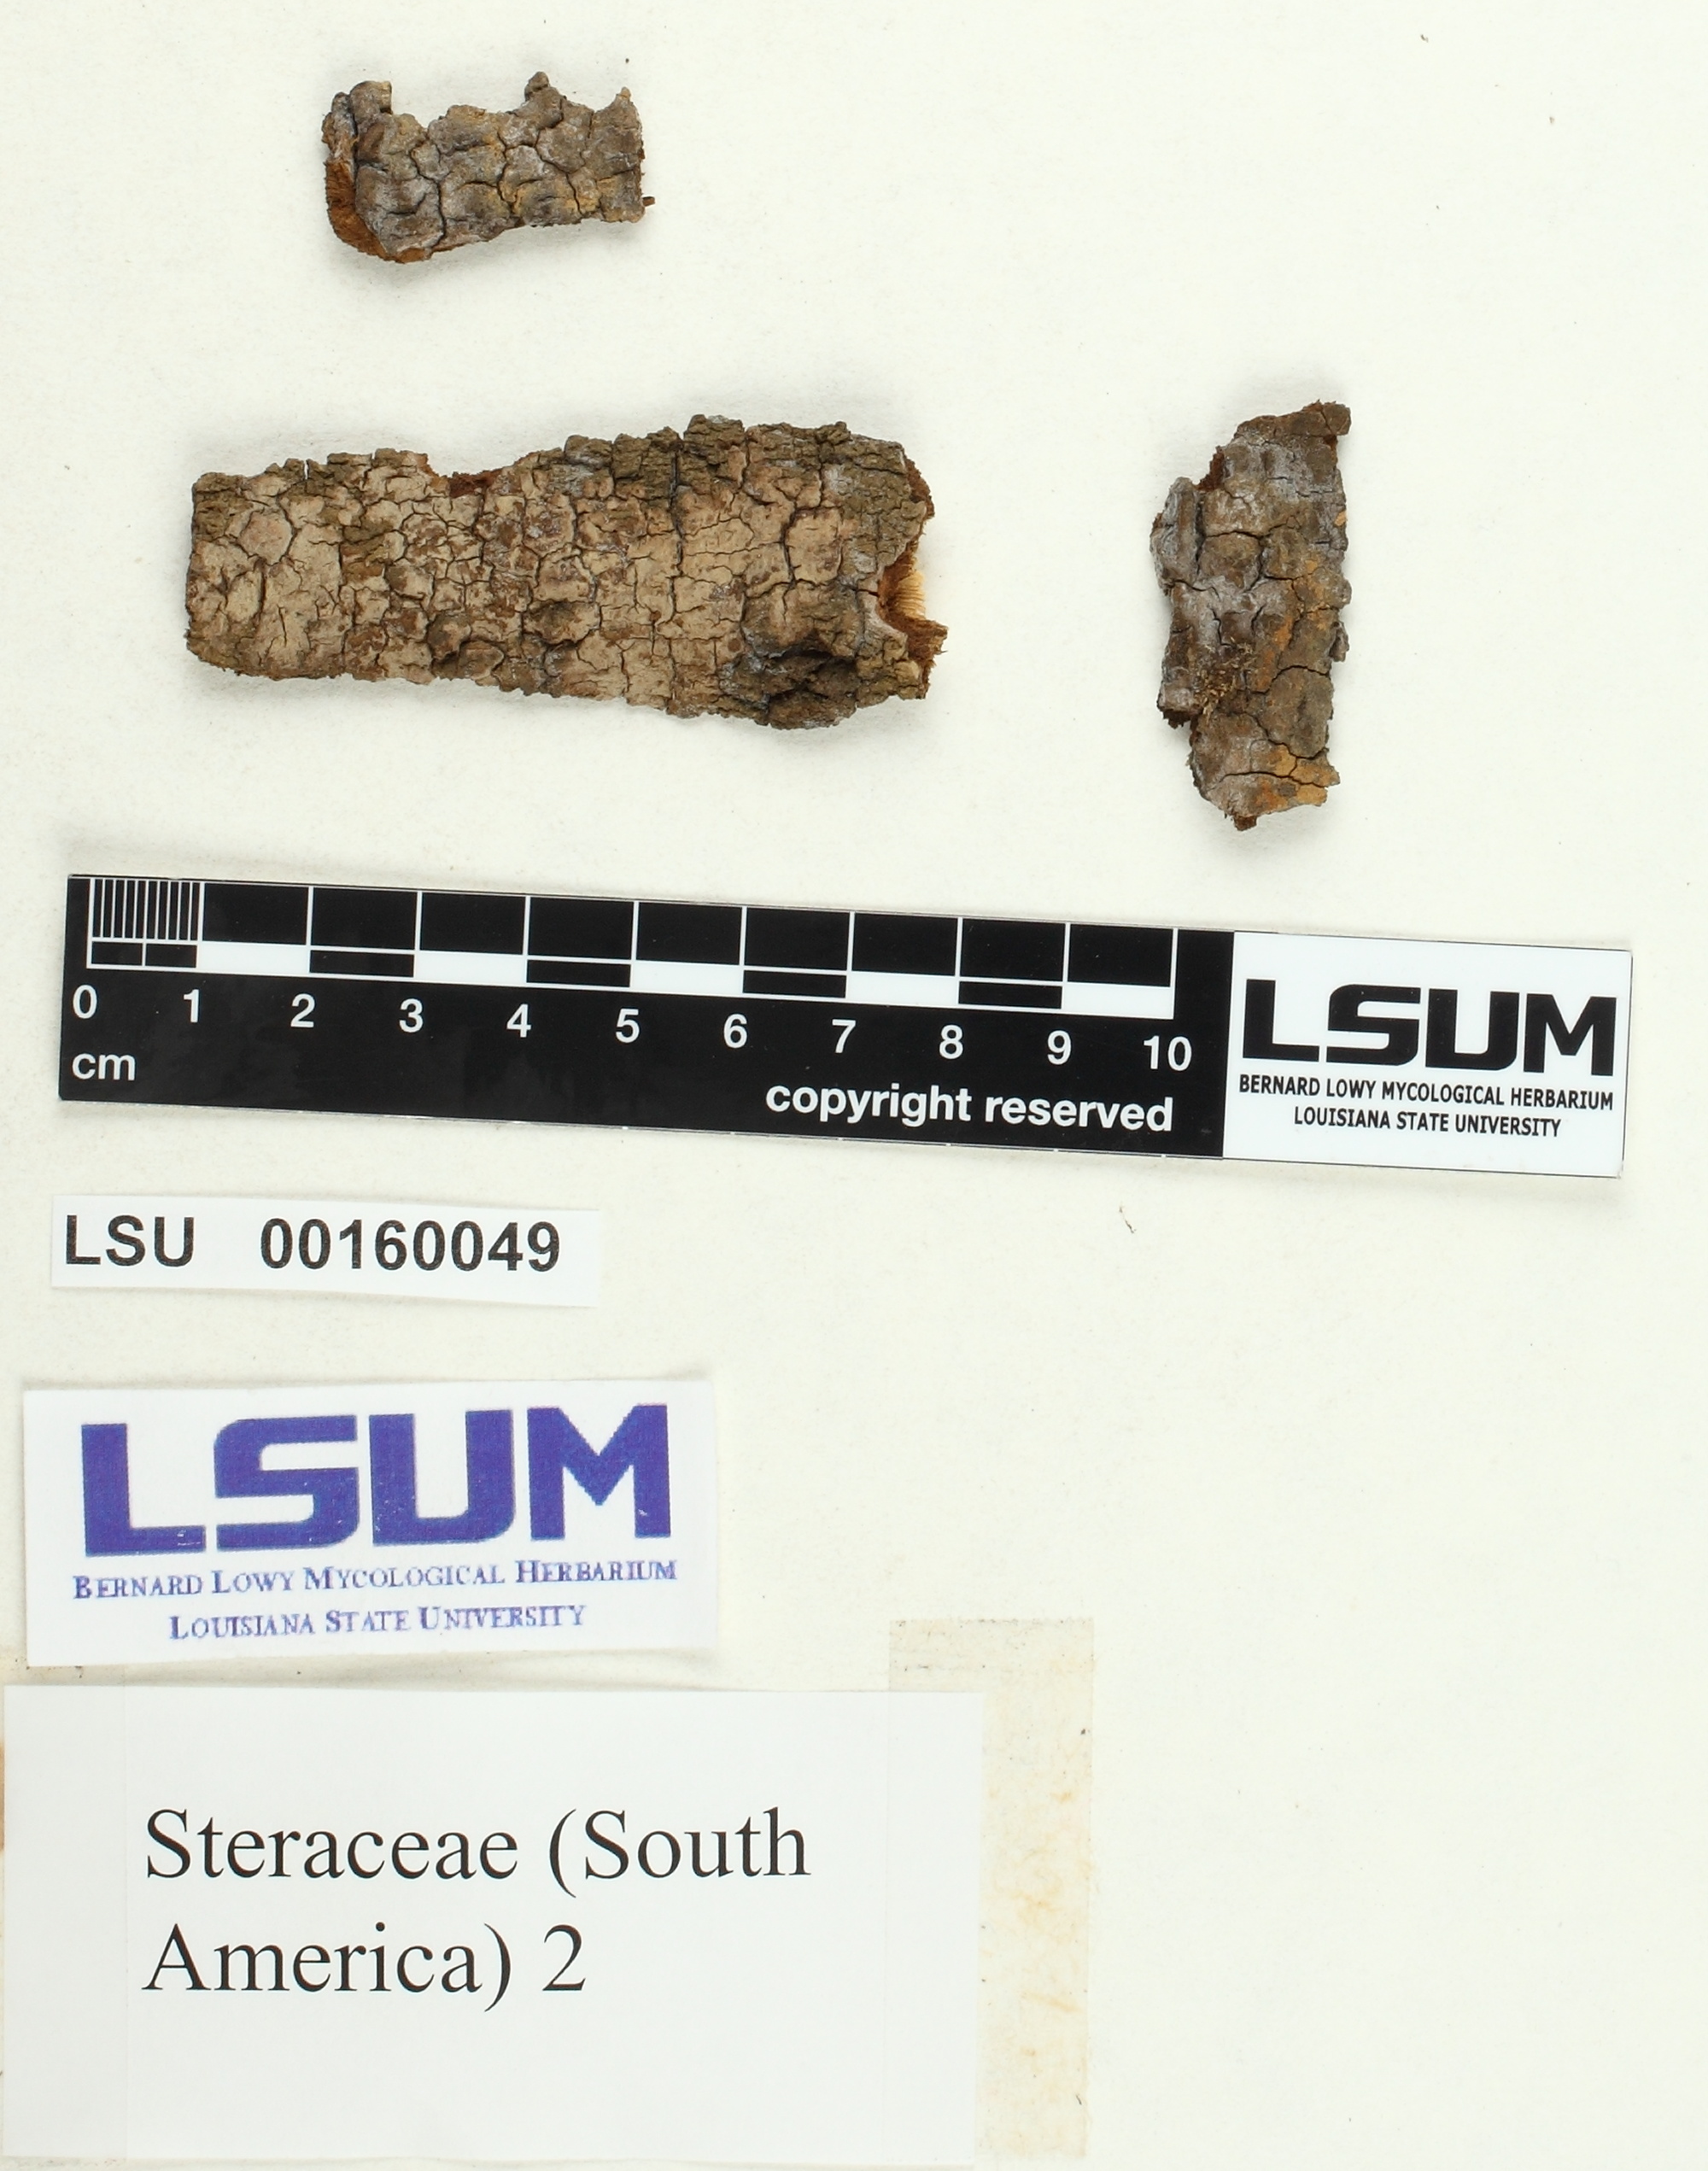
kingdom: Fungi
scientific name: Fungi
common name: Fungi
